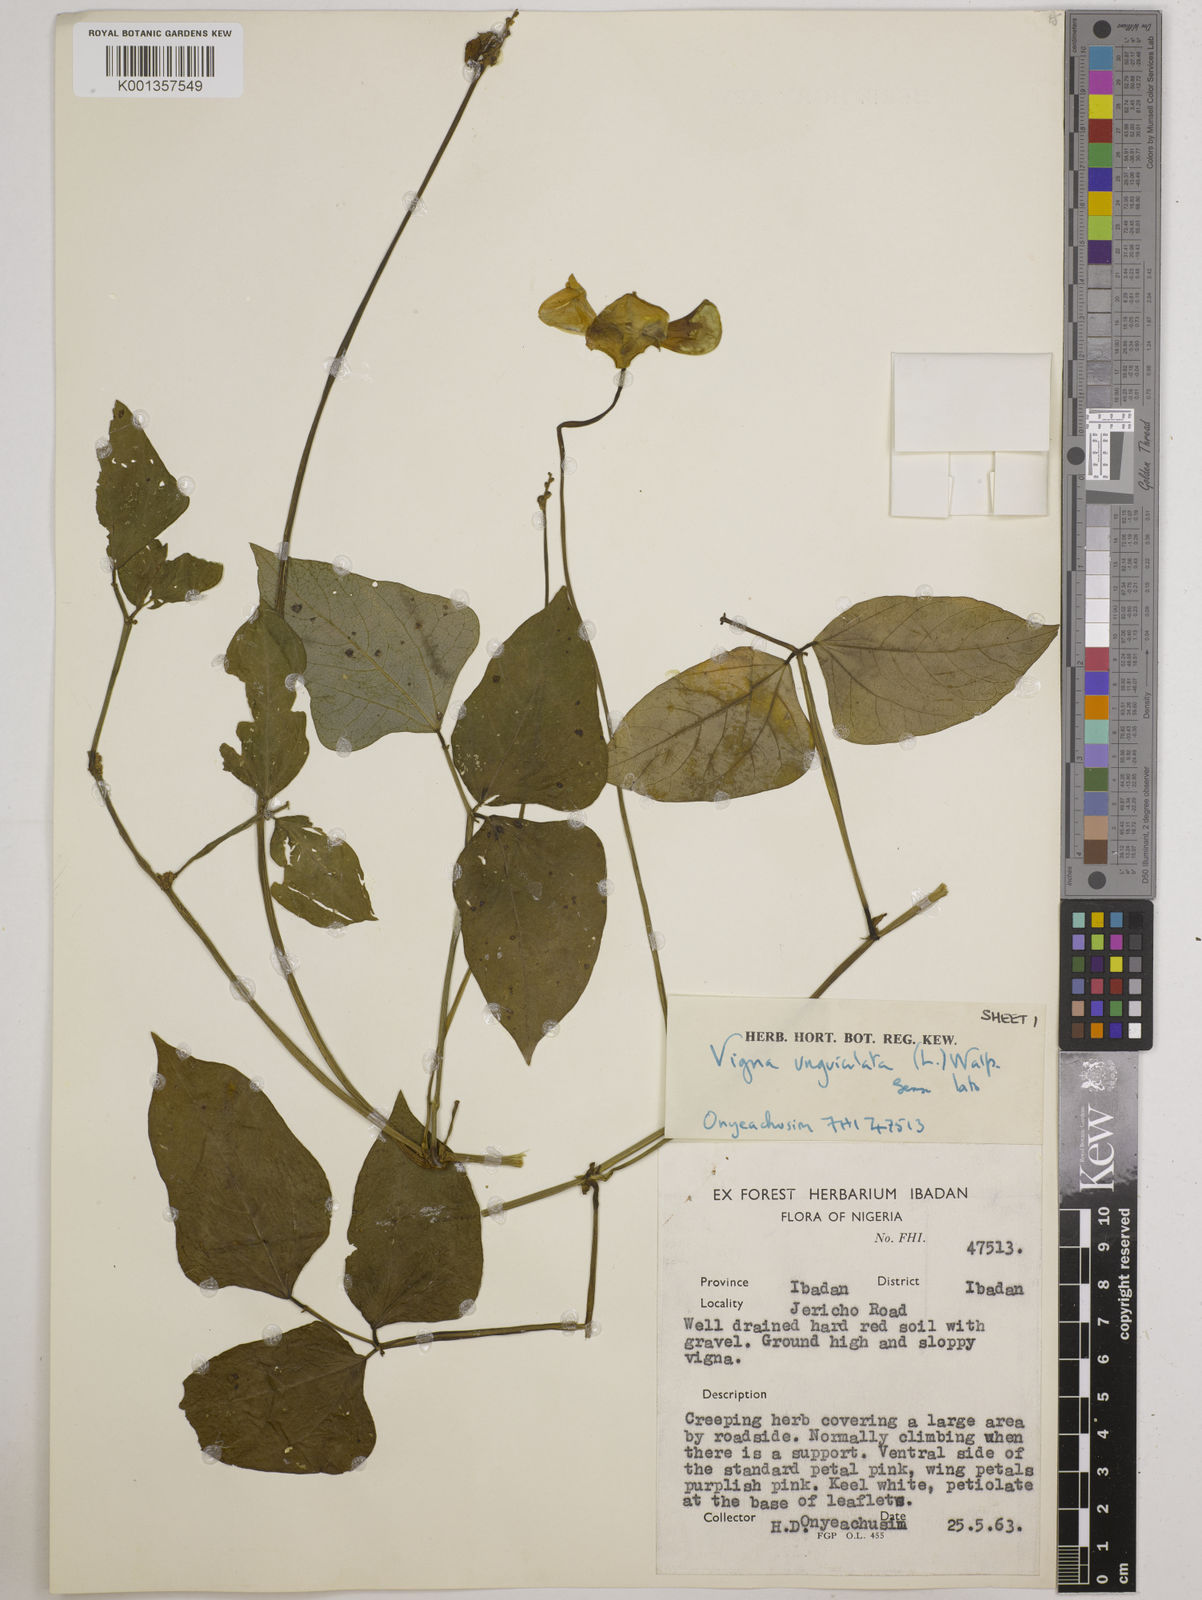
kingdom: Plantae
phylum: Tracheophyta
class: Magnoliopsida
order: Fabales
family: Fabaceae
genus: Vigna
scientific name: Vigna
